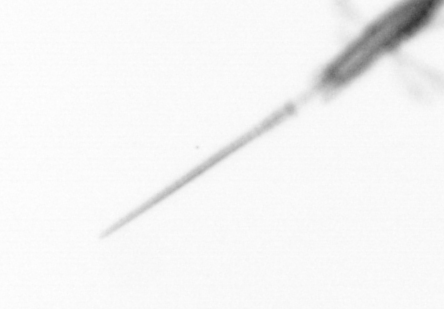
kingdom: Animalia
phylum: Arthropoda
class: Copepoda
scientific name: Copepoda
